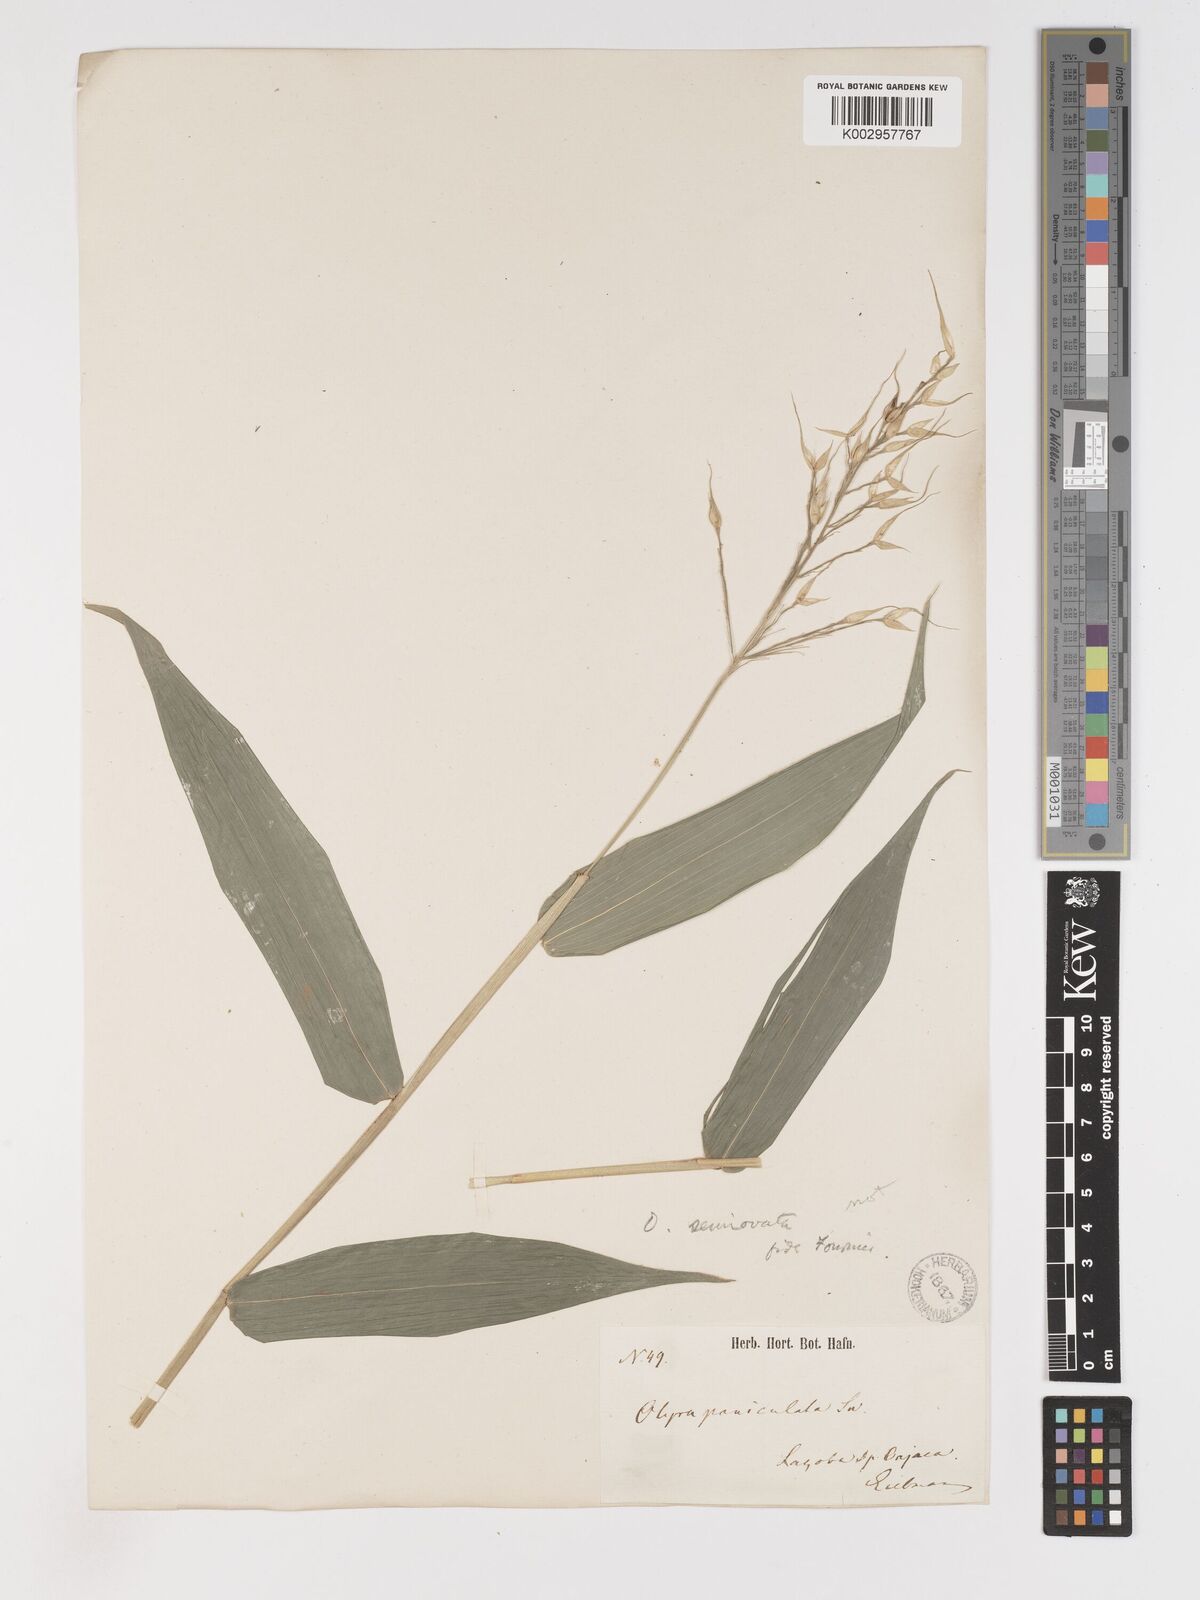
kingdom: Plantae
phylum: Tracheophyta
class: Liliopsida
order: Poales
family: Poaceae
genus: Olyra
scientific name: Olyra latifolia
